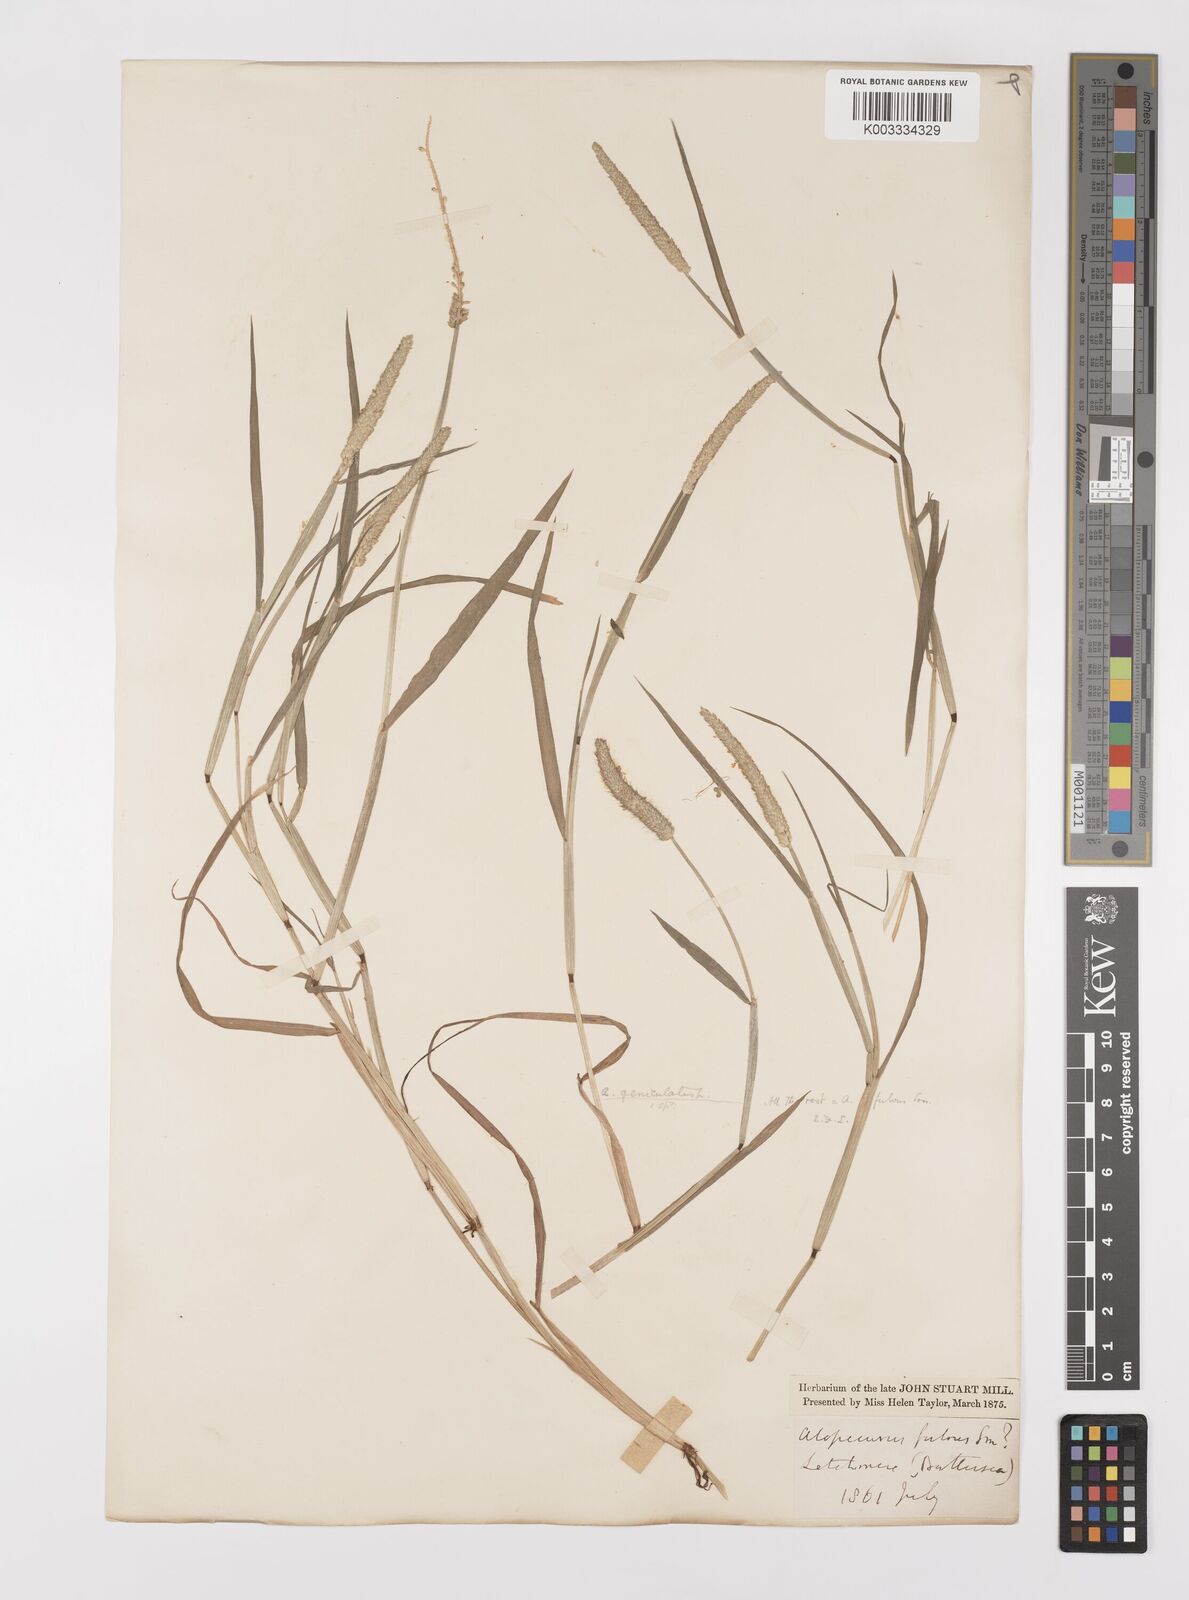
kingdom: Plantae
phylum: Tracheophyta
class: Liliopsida
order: Poales
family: Poaceae
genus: Alopecurus
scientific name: Alopecurus aequalis
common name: Orange foxtail
